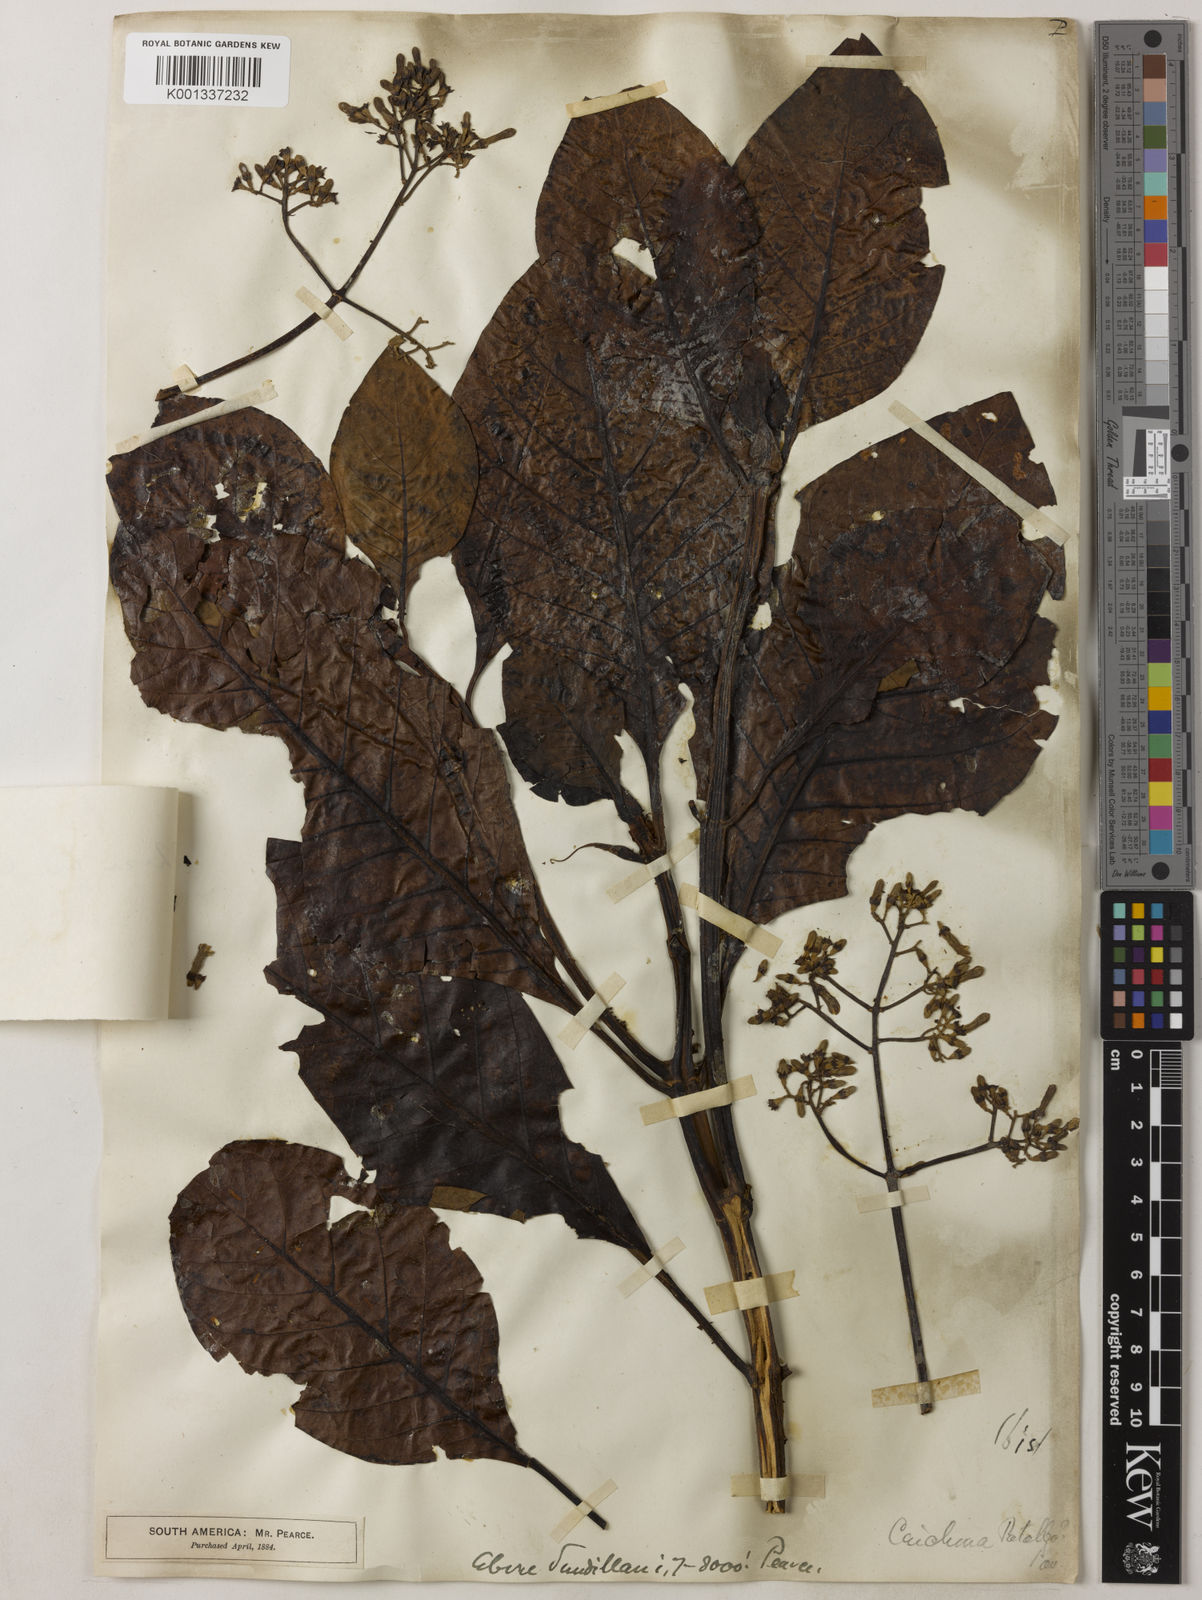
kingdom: Plantae
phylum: Tracheophyta
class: Magnoliopsida
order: Gentianales
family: Rubiaceae
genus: Cinchona
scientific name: Cinchona micrantha
